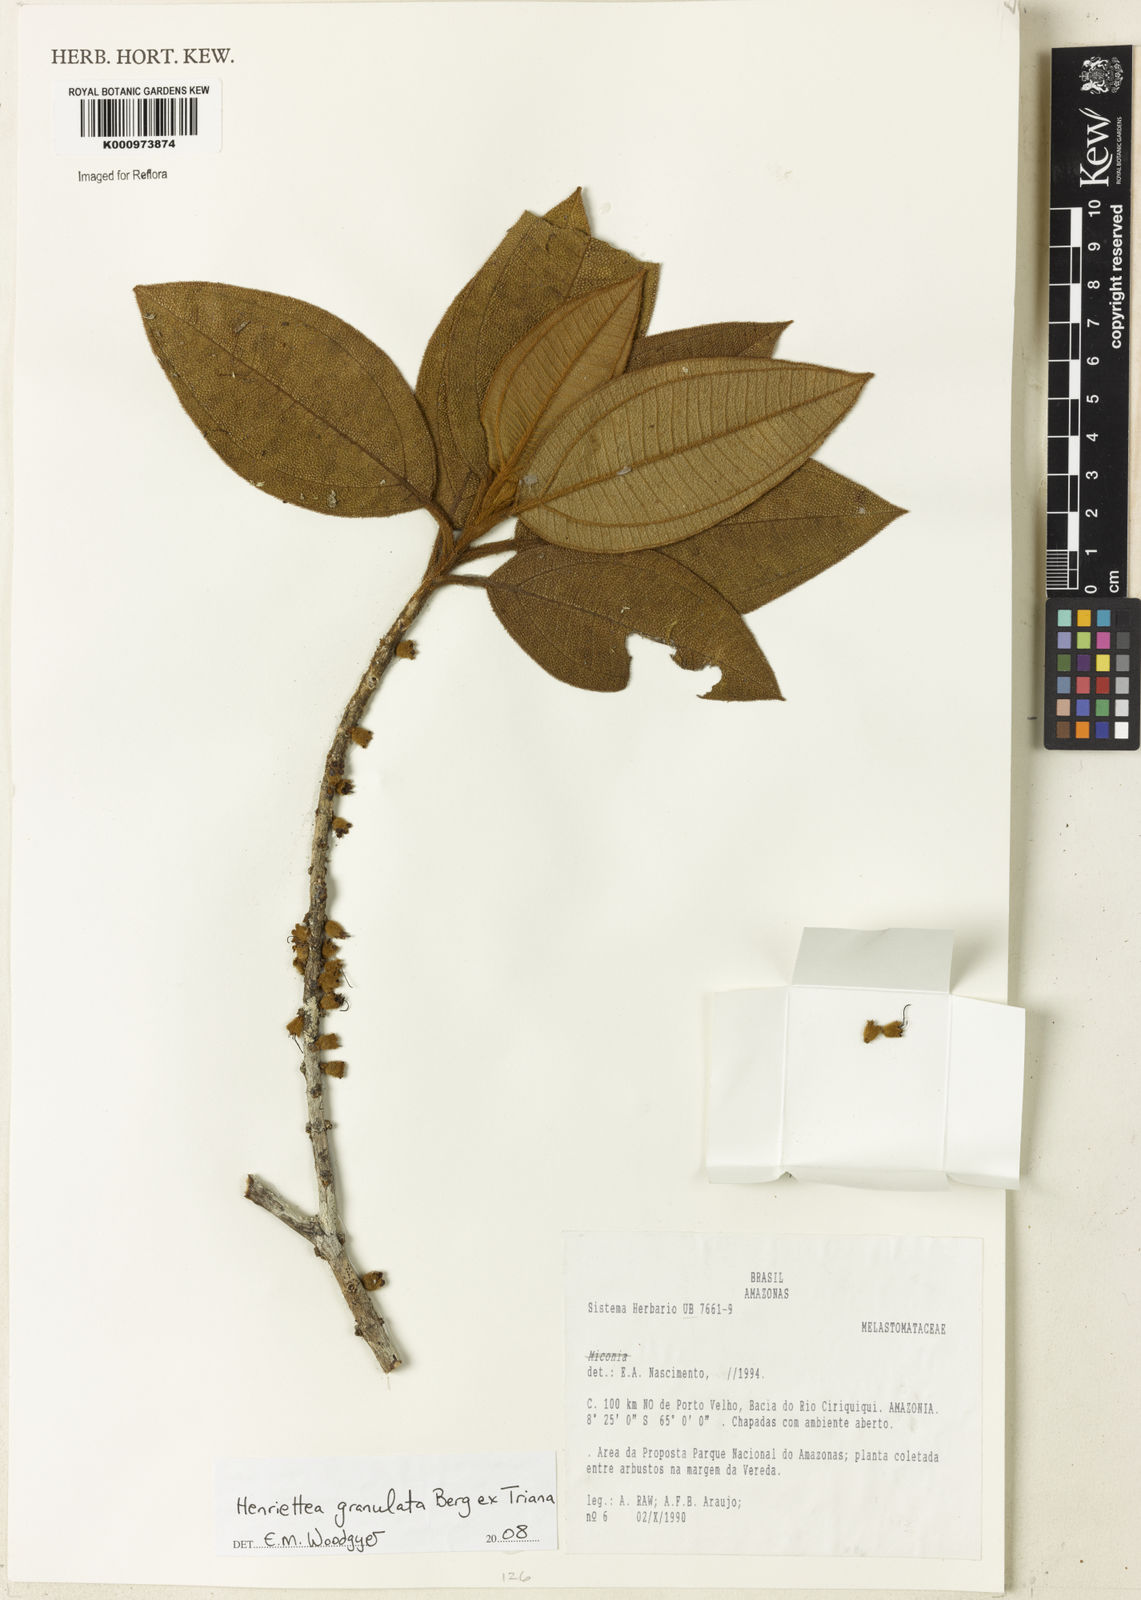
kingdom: Plantae
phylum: Tracheophyta
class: Magnoliopsida
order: Myrtales
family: Melastomataceae
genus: Henriettea
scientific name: Henriettea granulata
